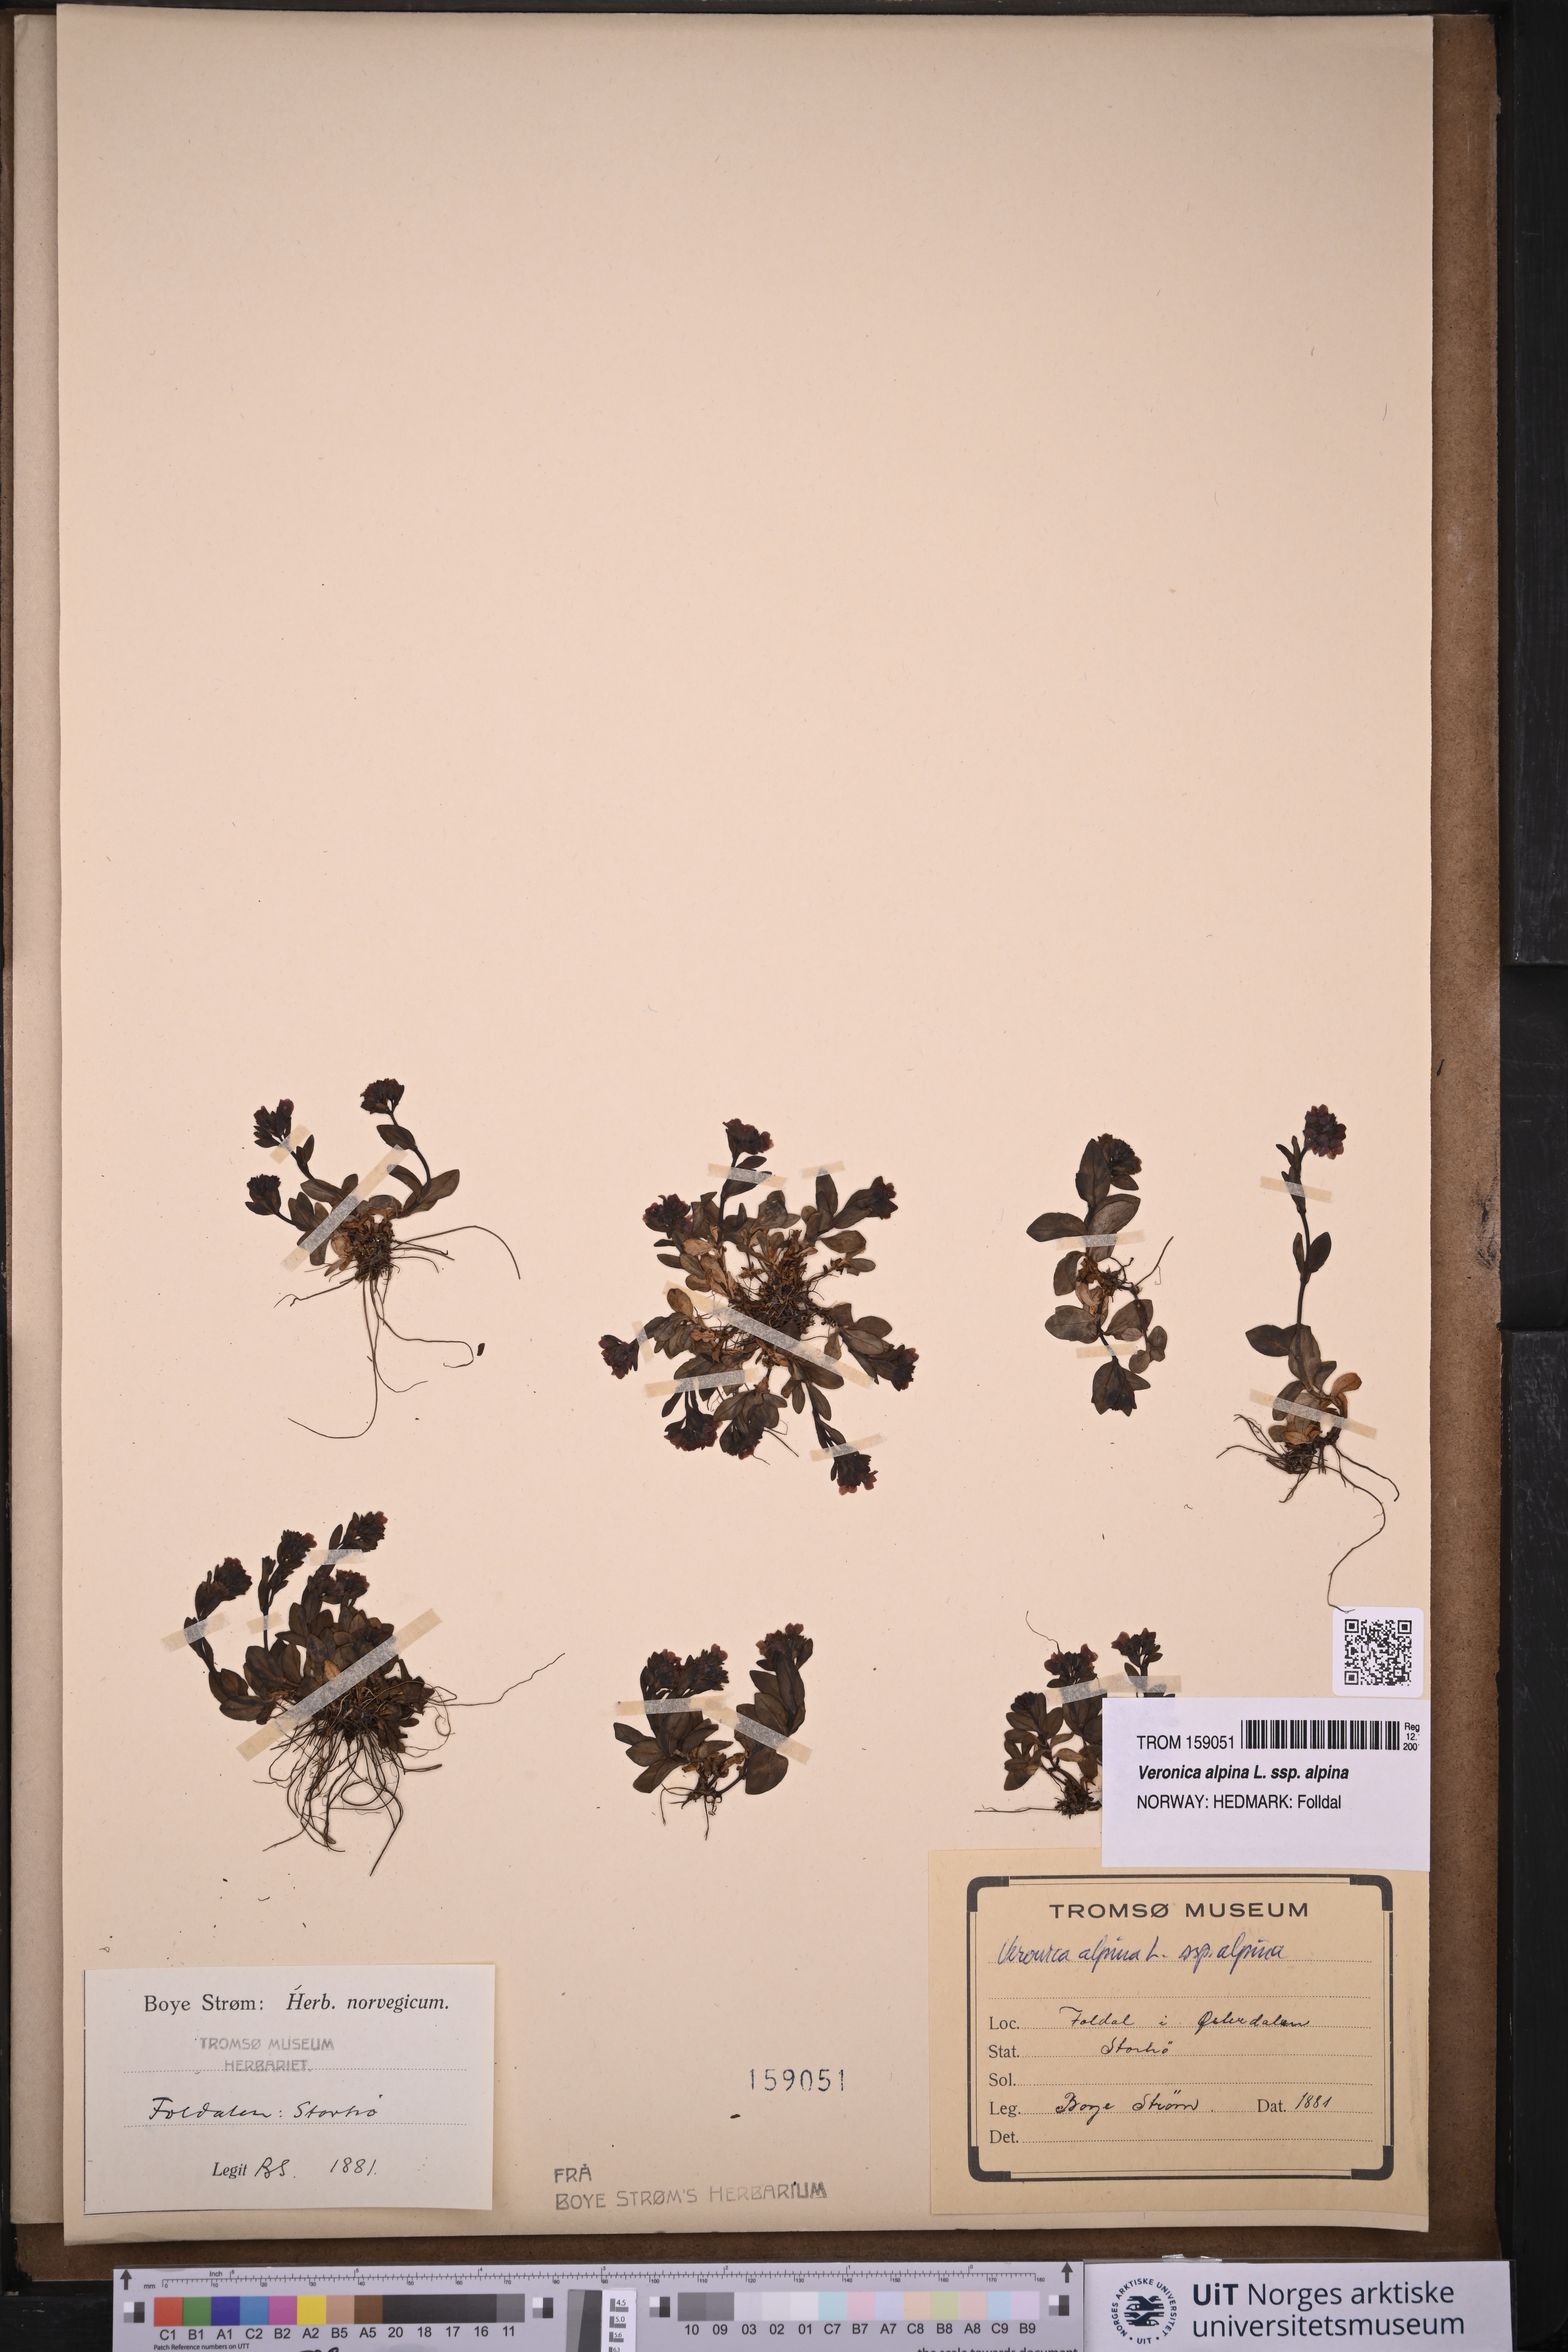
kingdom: Plantae
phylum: Tracheophyta
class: Magnoliopsida
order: Lamiales
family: Plantaginaceae
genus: Veronica
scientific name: Veronica alpina
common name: Alpine speedwell
